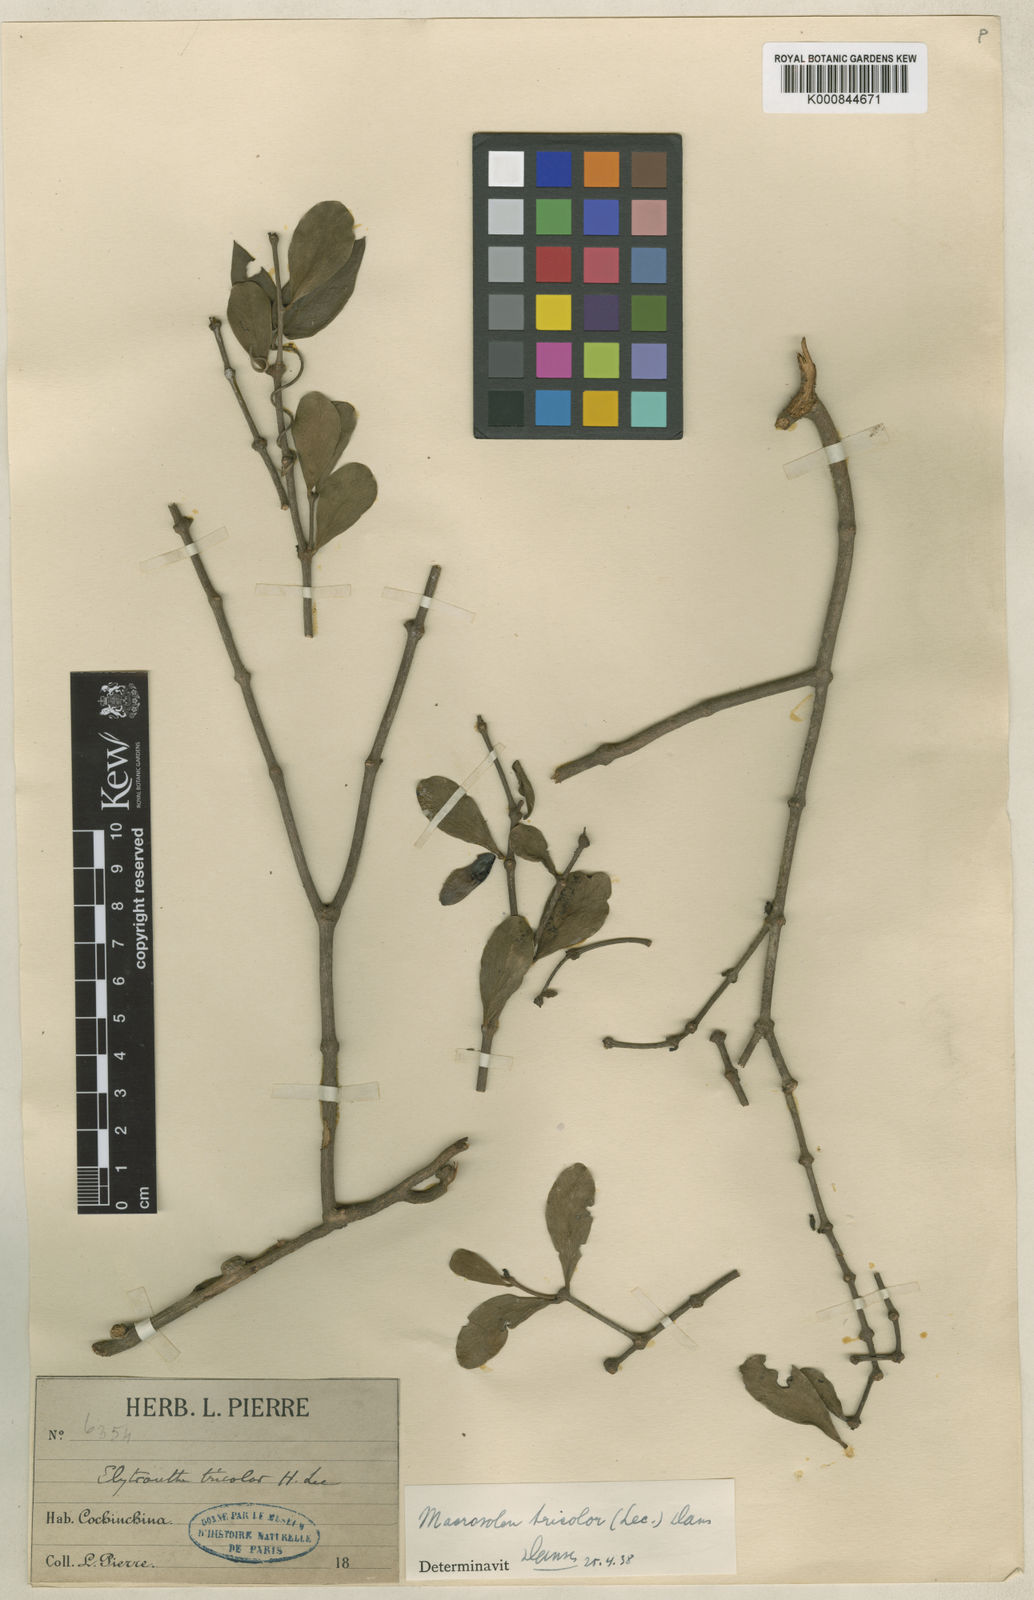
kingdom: Plantae
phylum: Tracheophyta
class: Magnoliopsida
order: Santalales
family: Loranthaceae
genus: Macrosolen
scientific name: Macrosolen tricolor
